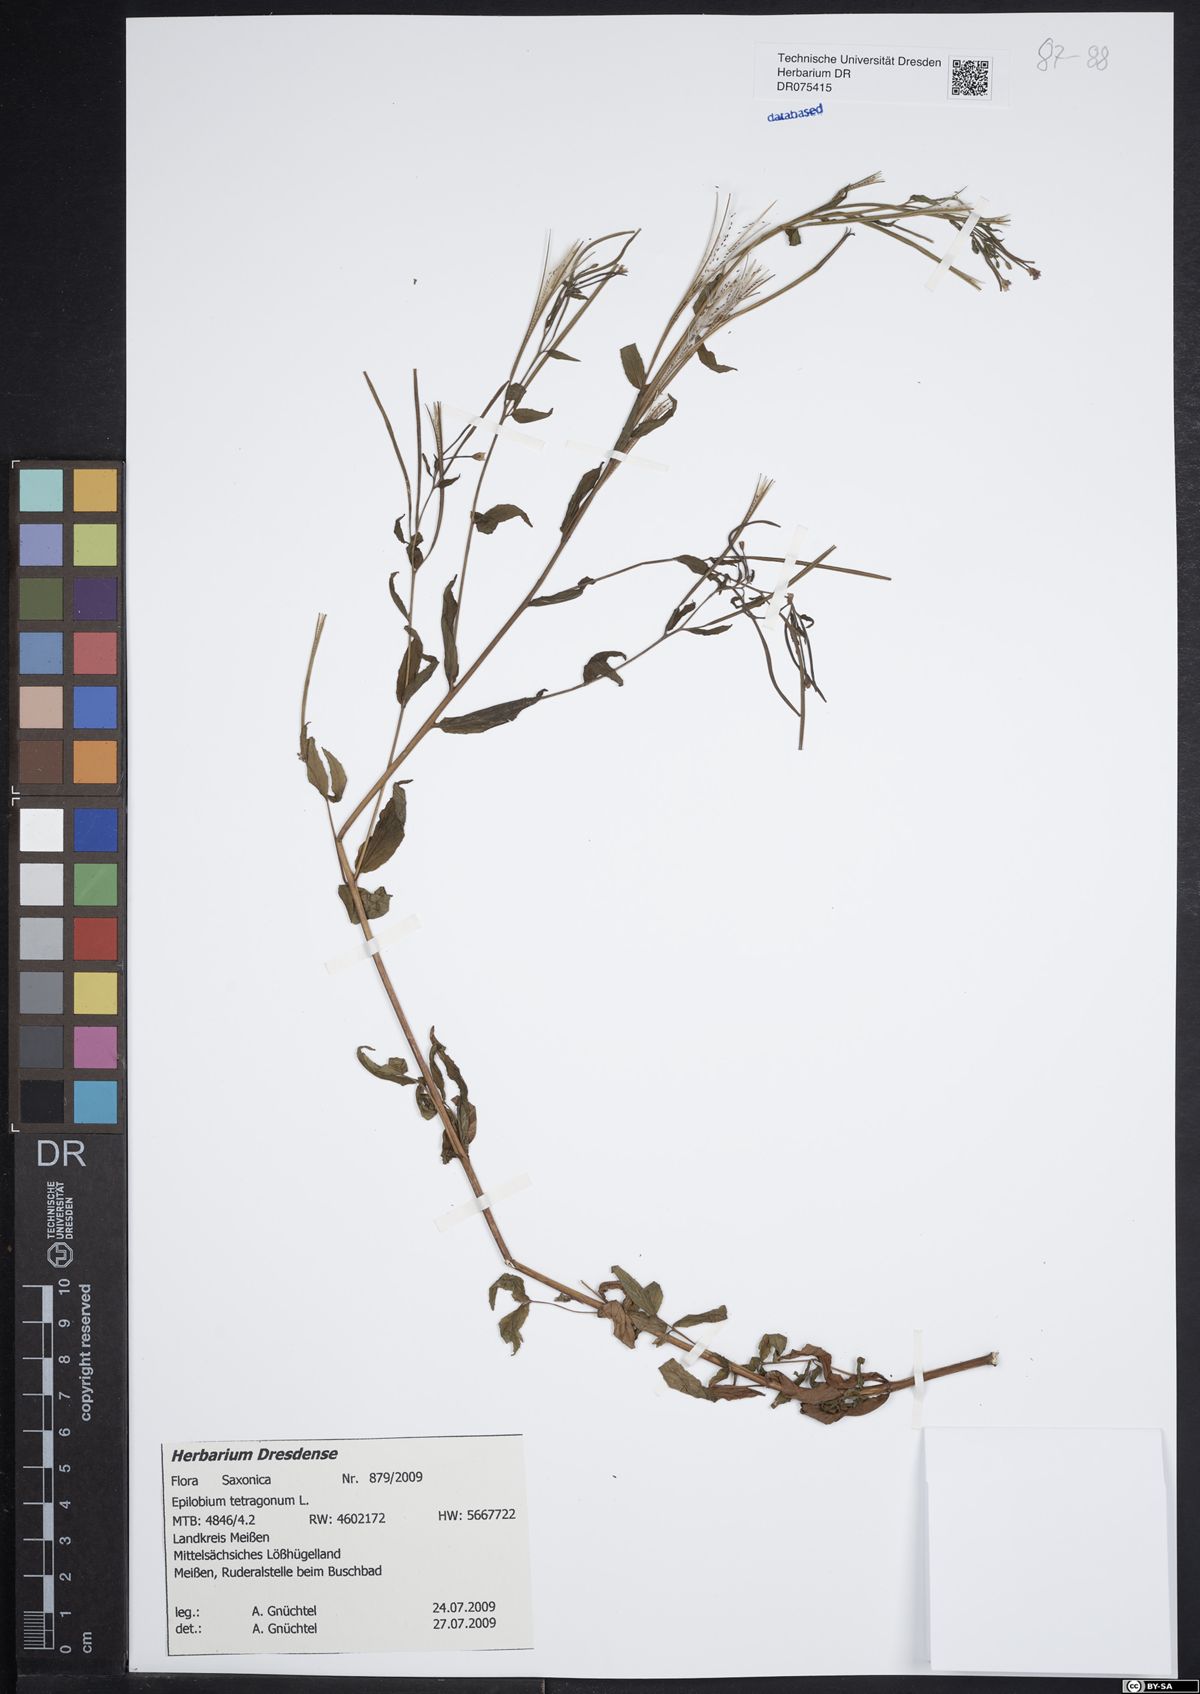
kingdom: Plantae
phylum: Tracheophyta
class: Magnoliopsida
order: Myrtales
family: Onagraceae
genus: Epilobium
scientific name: Epilobium tetragonum
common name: Square-stemmed willowherb
